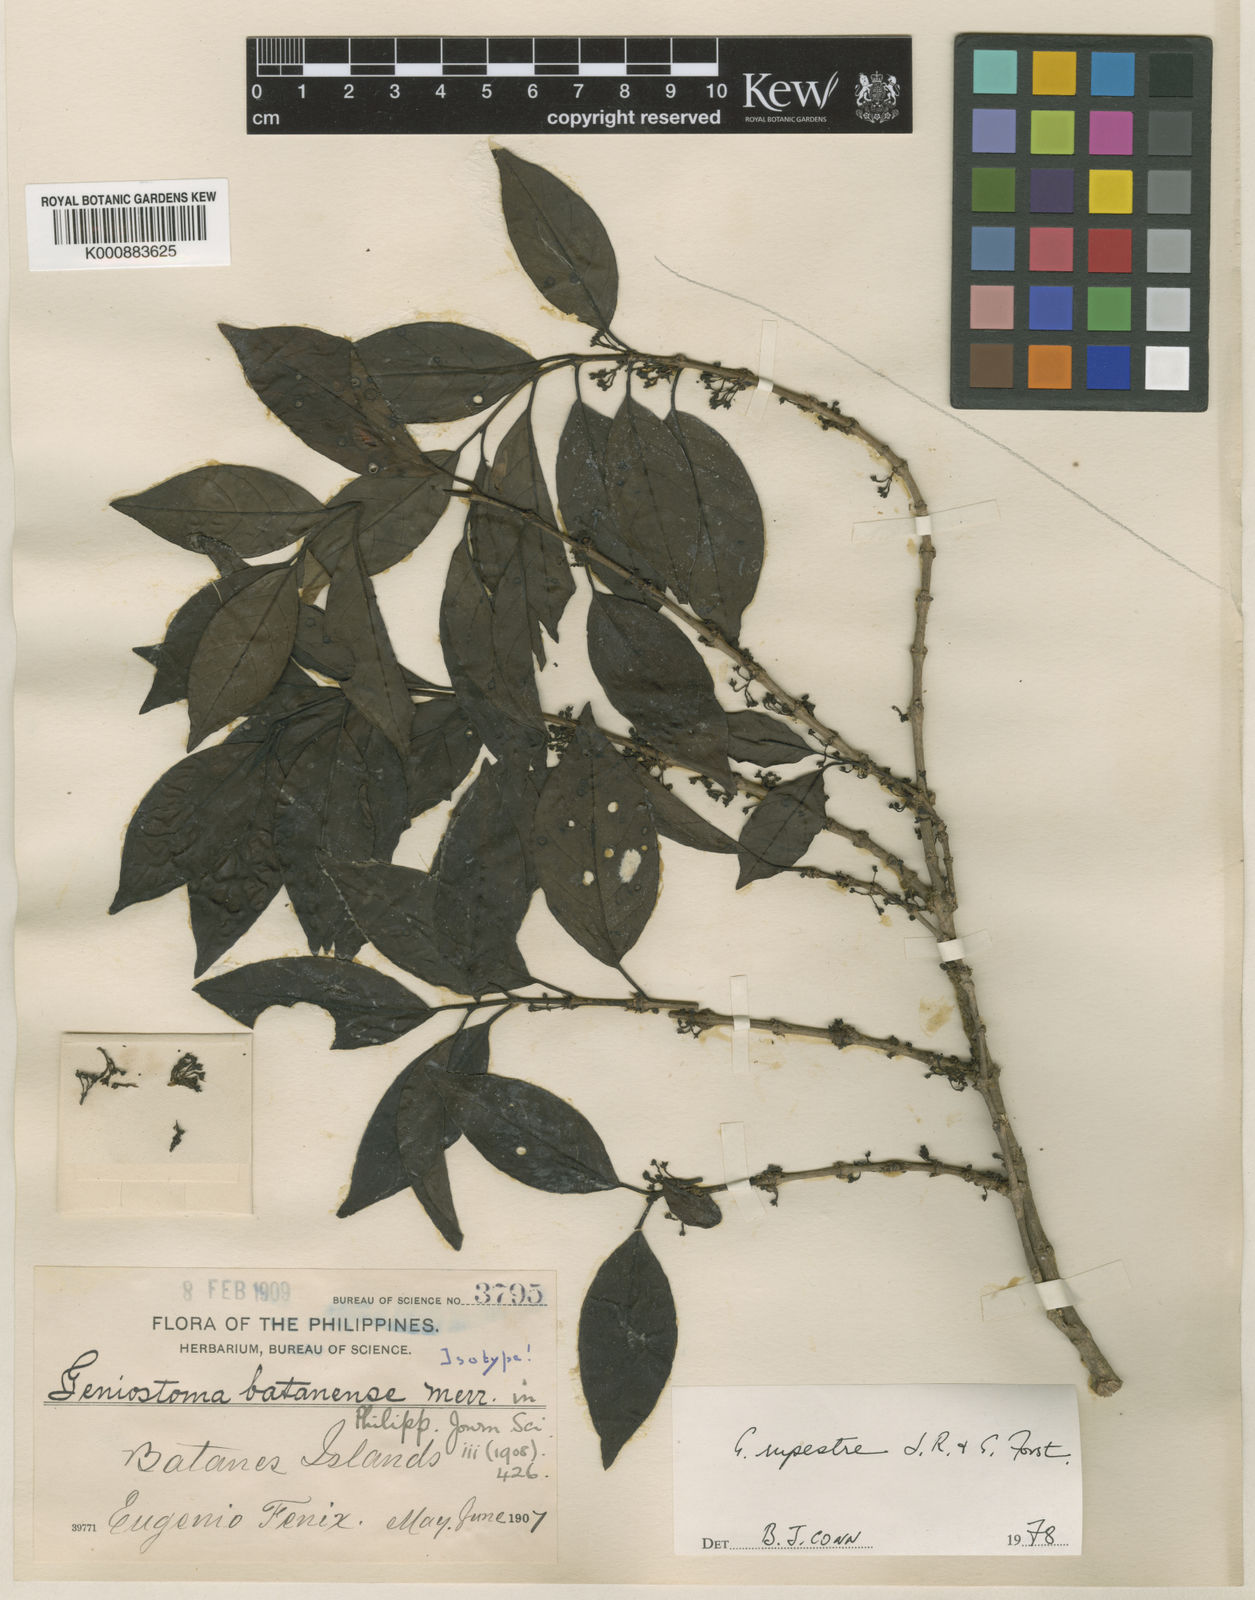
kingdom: Plantae
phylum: Tracheophyta
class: Magnoliopsida
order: Gentianales
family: Loganiaceae
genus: Geniostoma
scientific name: Geniostoma rupestre
